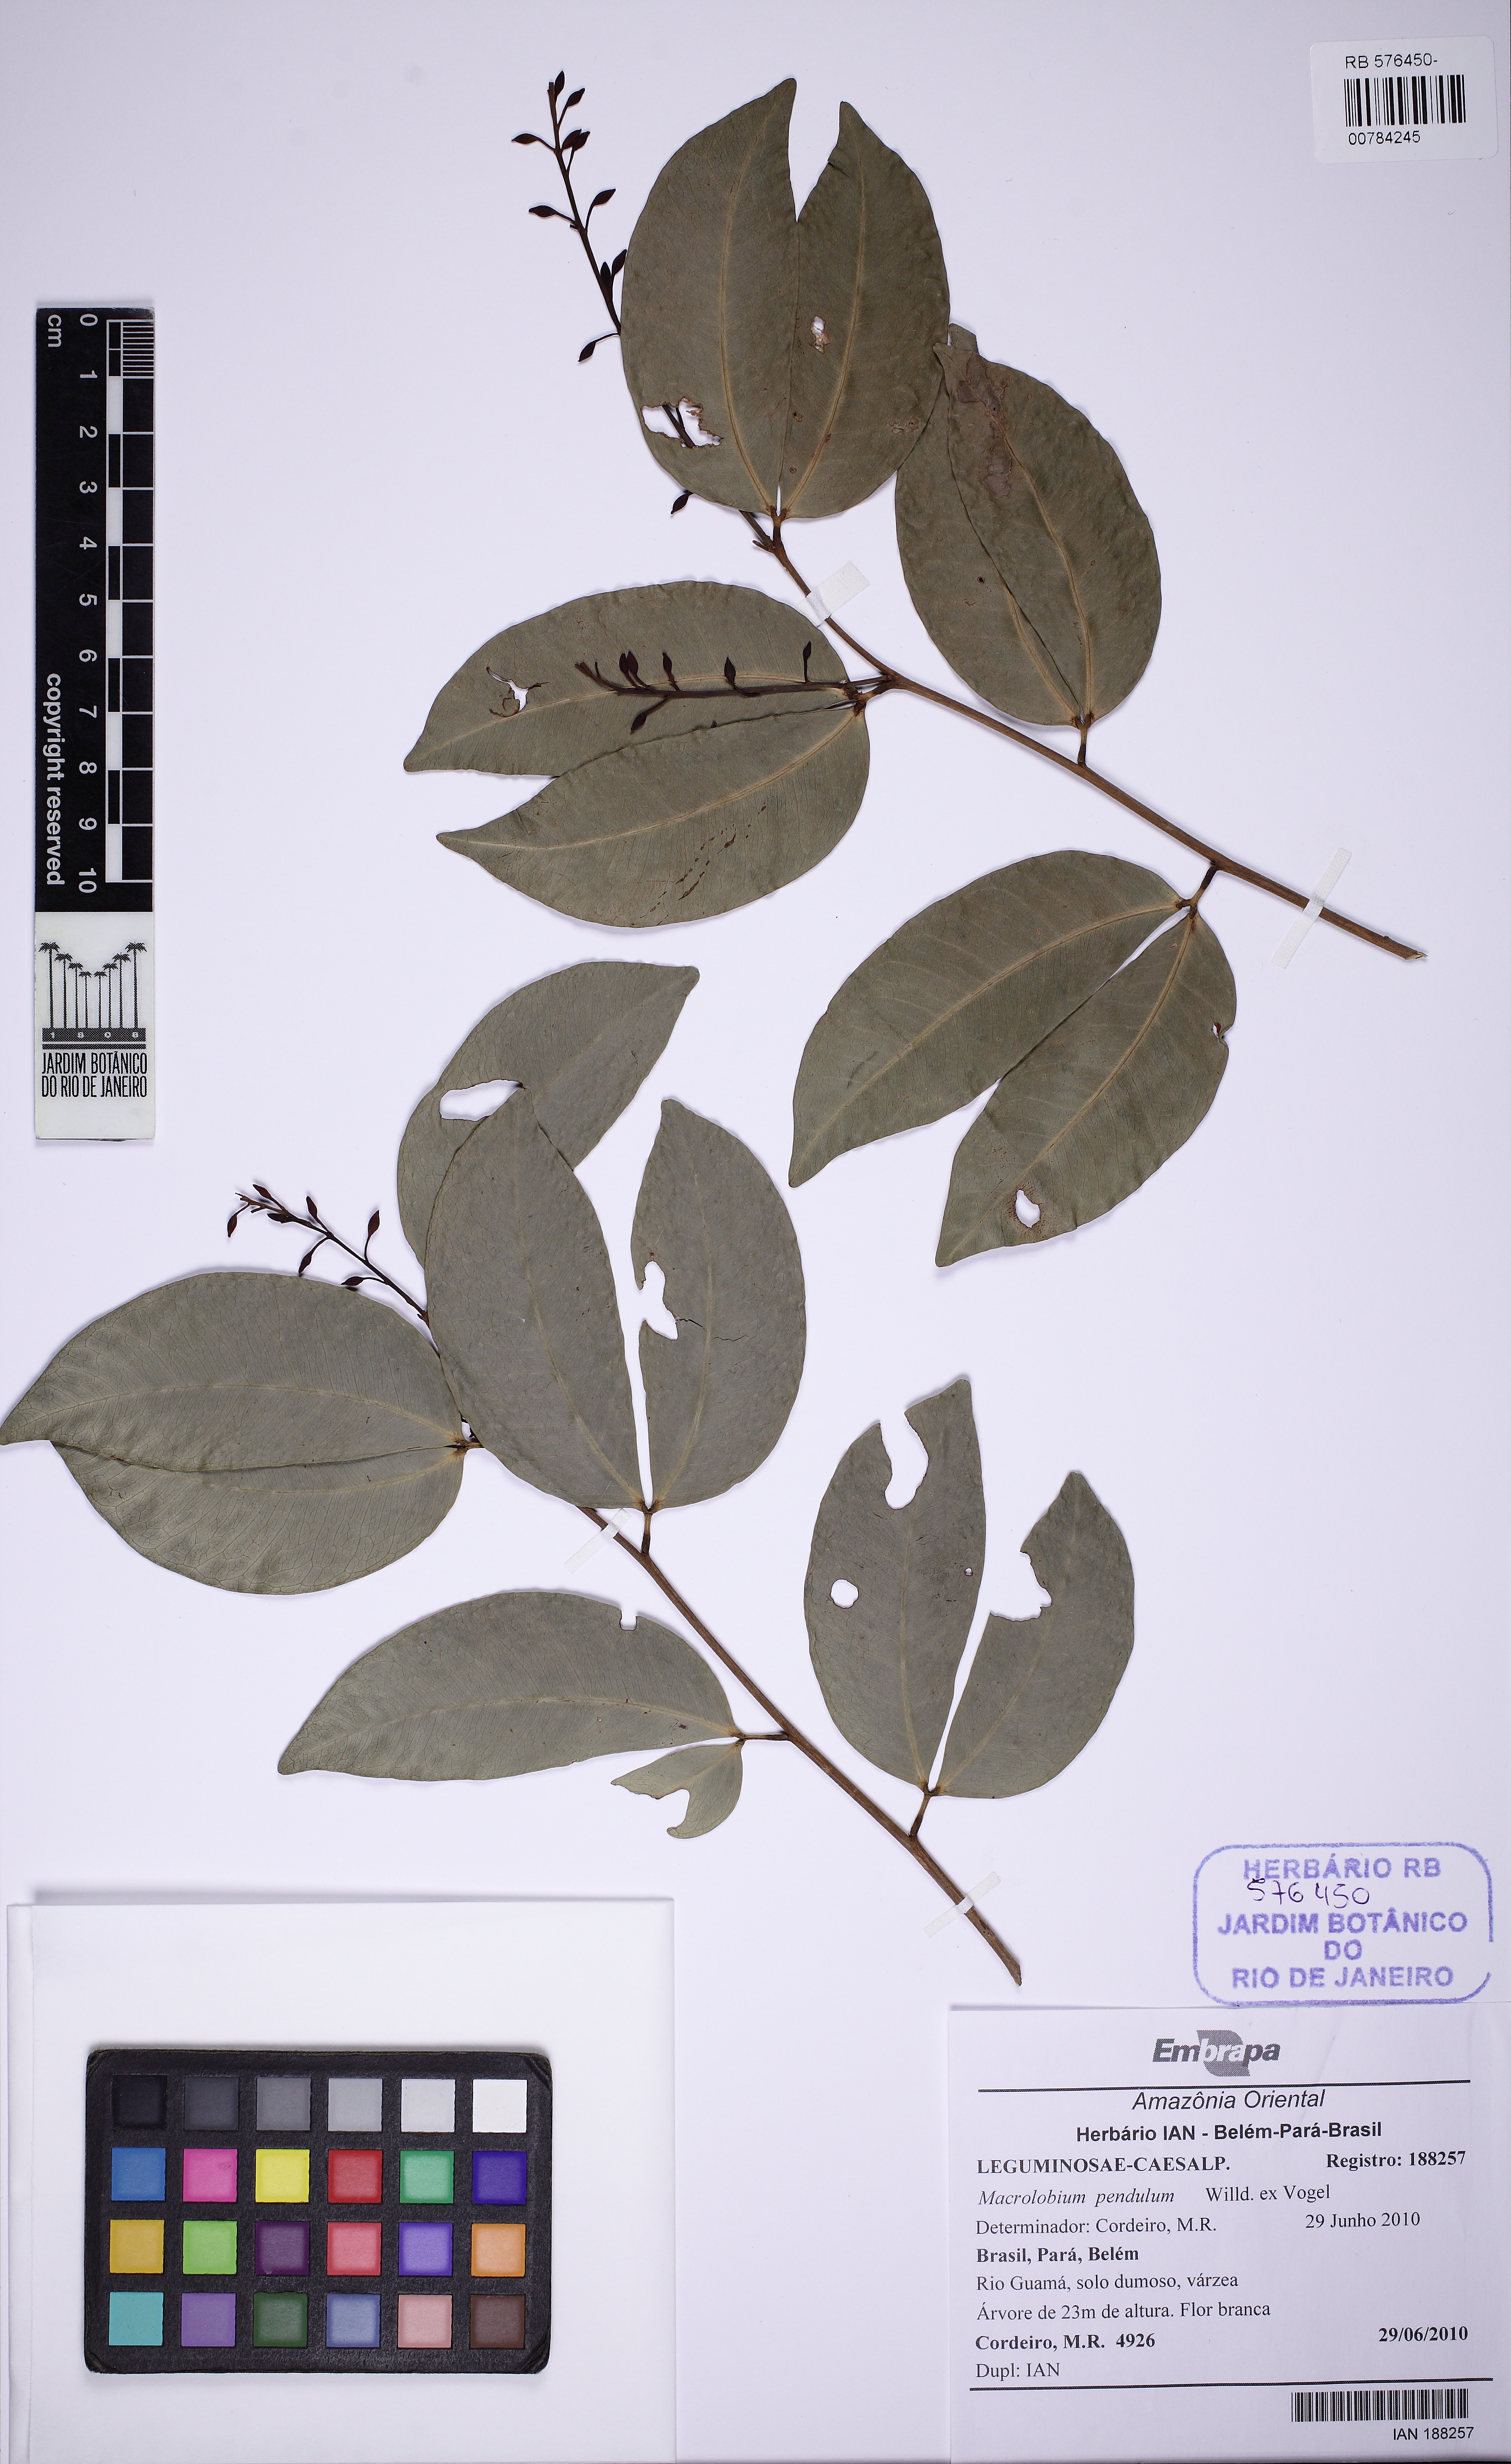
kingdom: Plantae
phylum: Tracheophyta
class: Magnoliopsida
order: Fabales
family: Fabaceae
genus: Macrolobium
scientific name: Macrolobium pendulum
